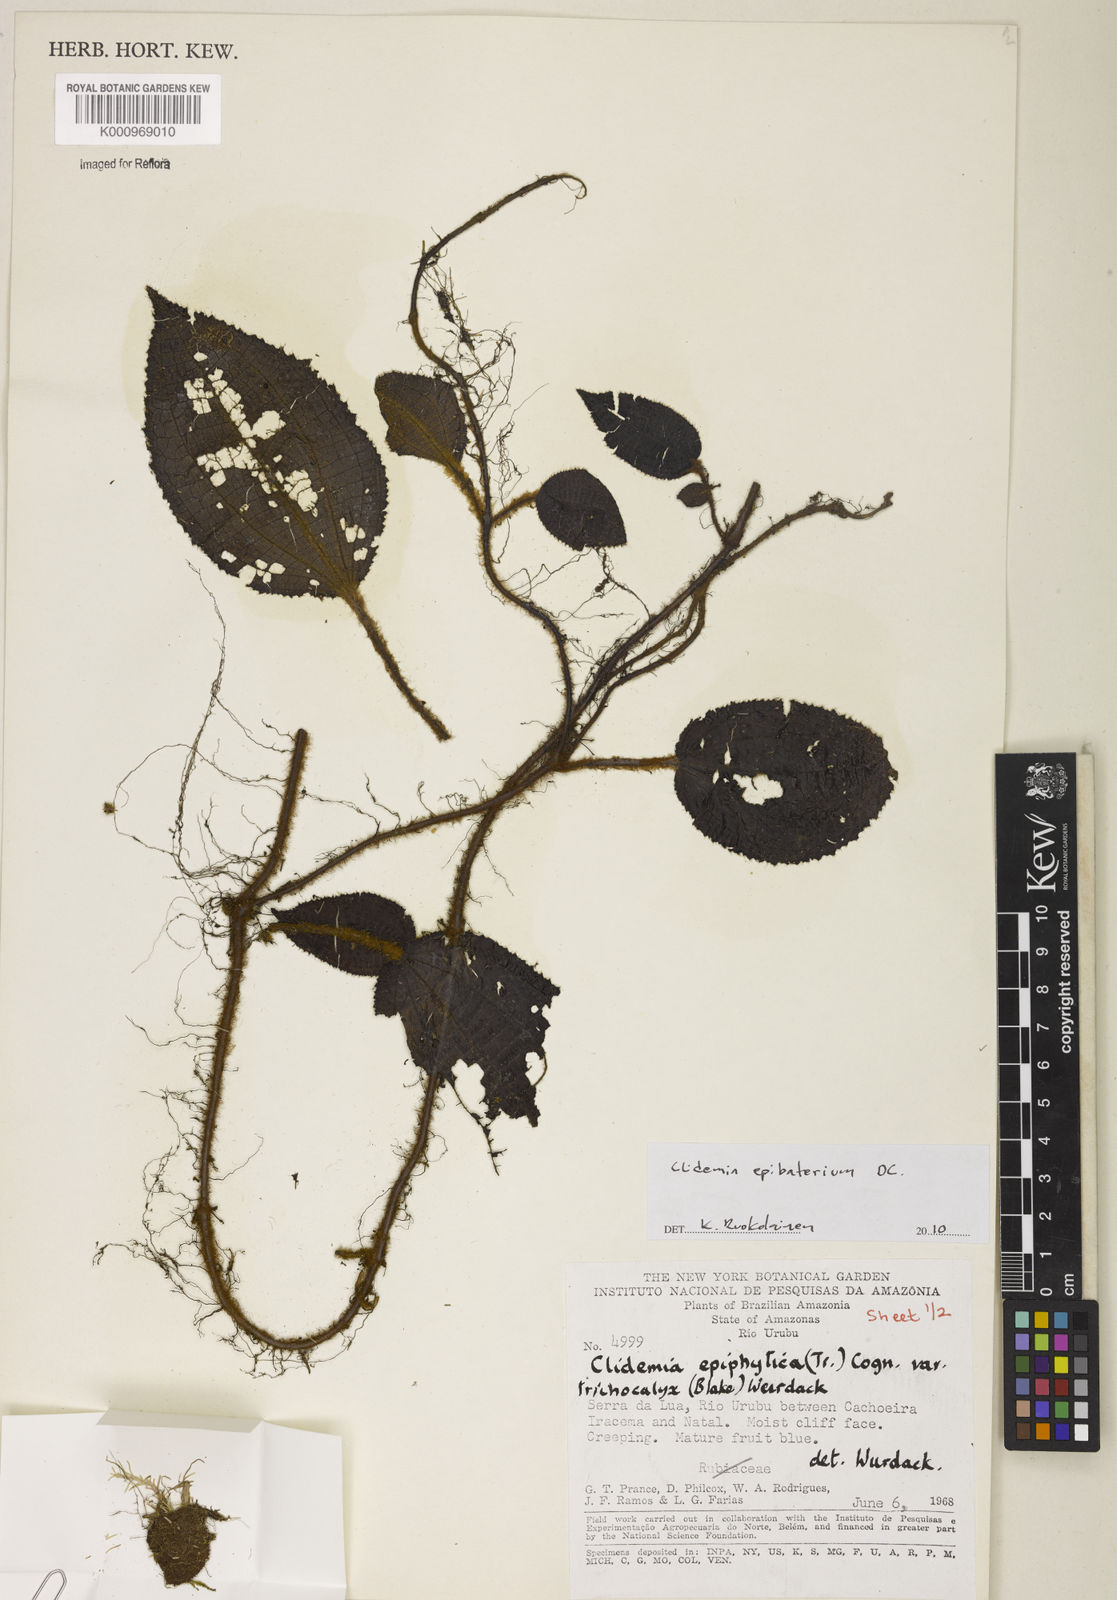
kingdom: Plantae
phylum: Tracheophyta
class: Magnoliopsida
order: Myrtales
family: Melastomataceae
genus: Miconia
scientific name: Miconia epibaterium
